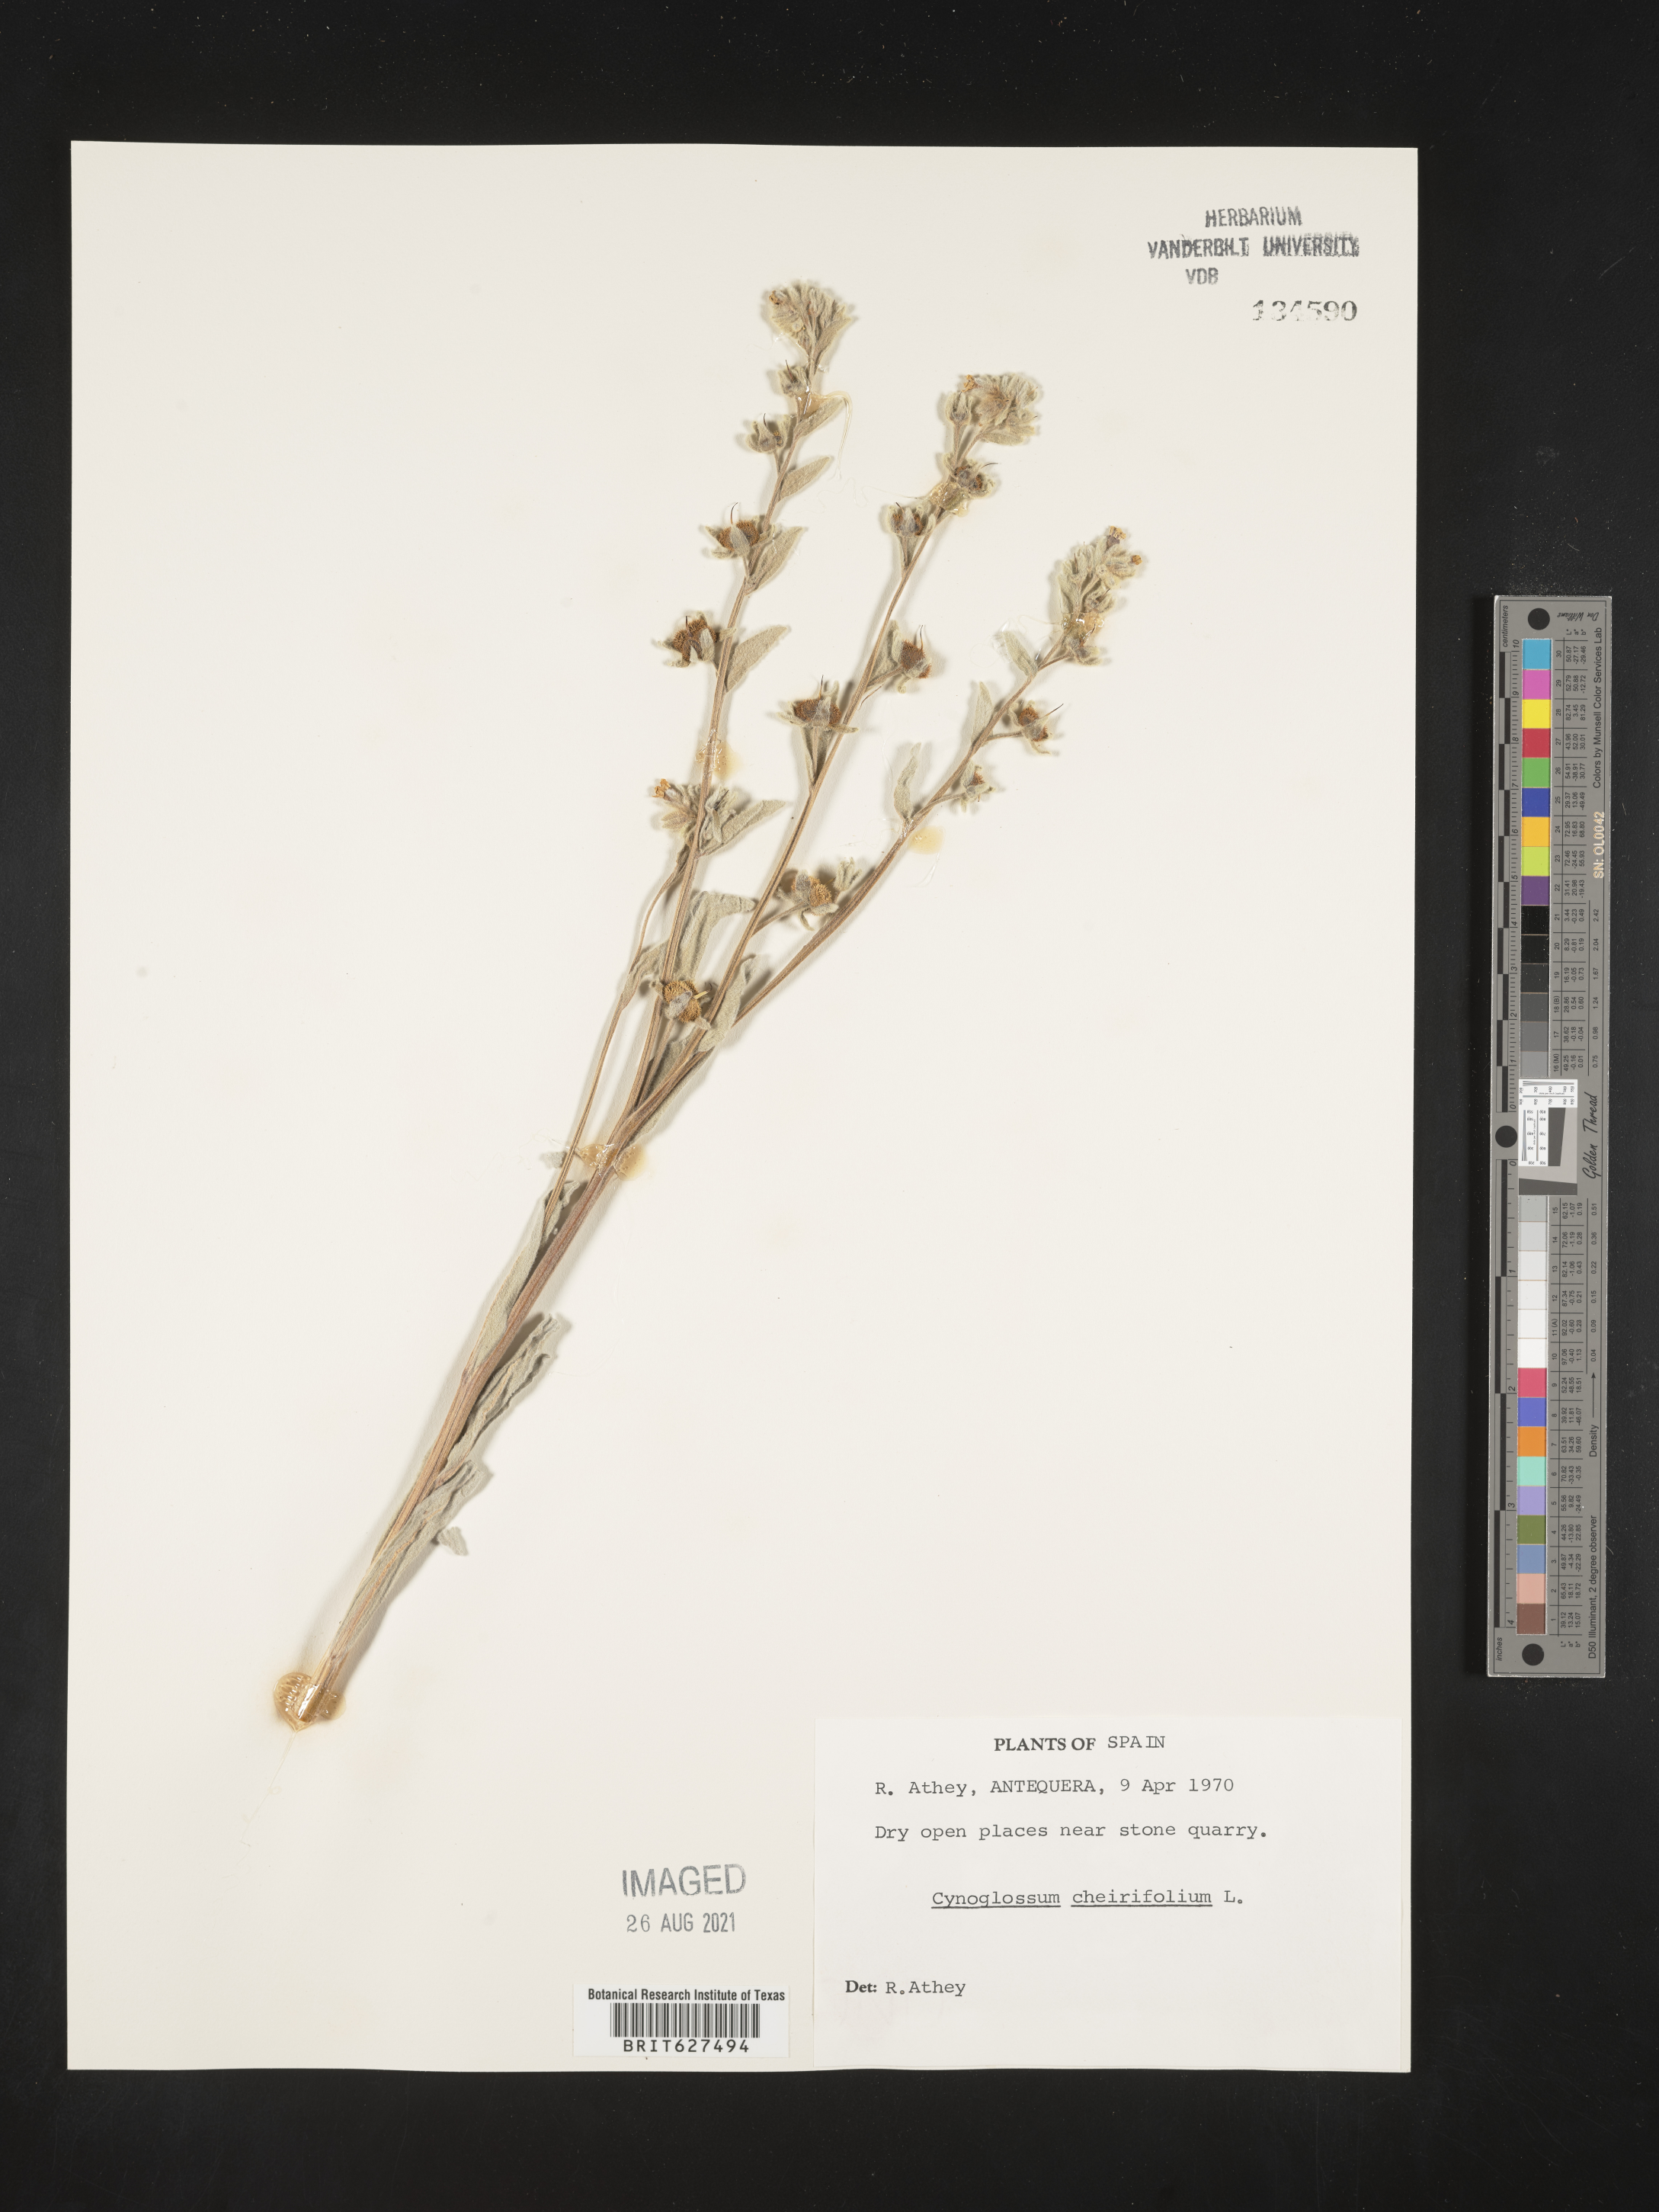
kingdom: Plantae
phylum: Tracheophyta
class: Magnoliopsida
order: Boraginales
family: Boraginaceae
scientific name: Boraginaceae
